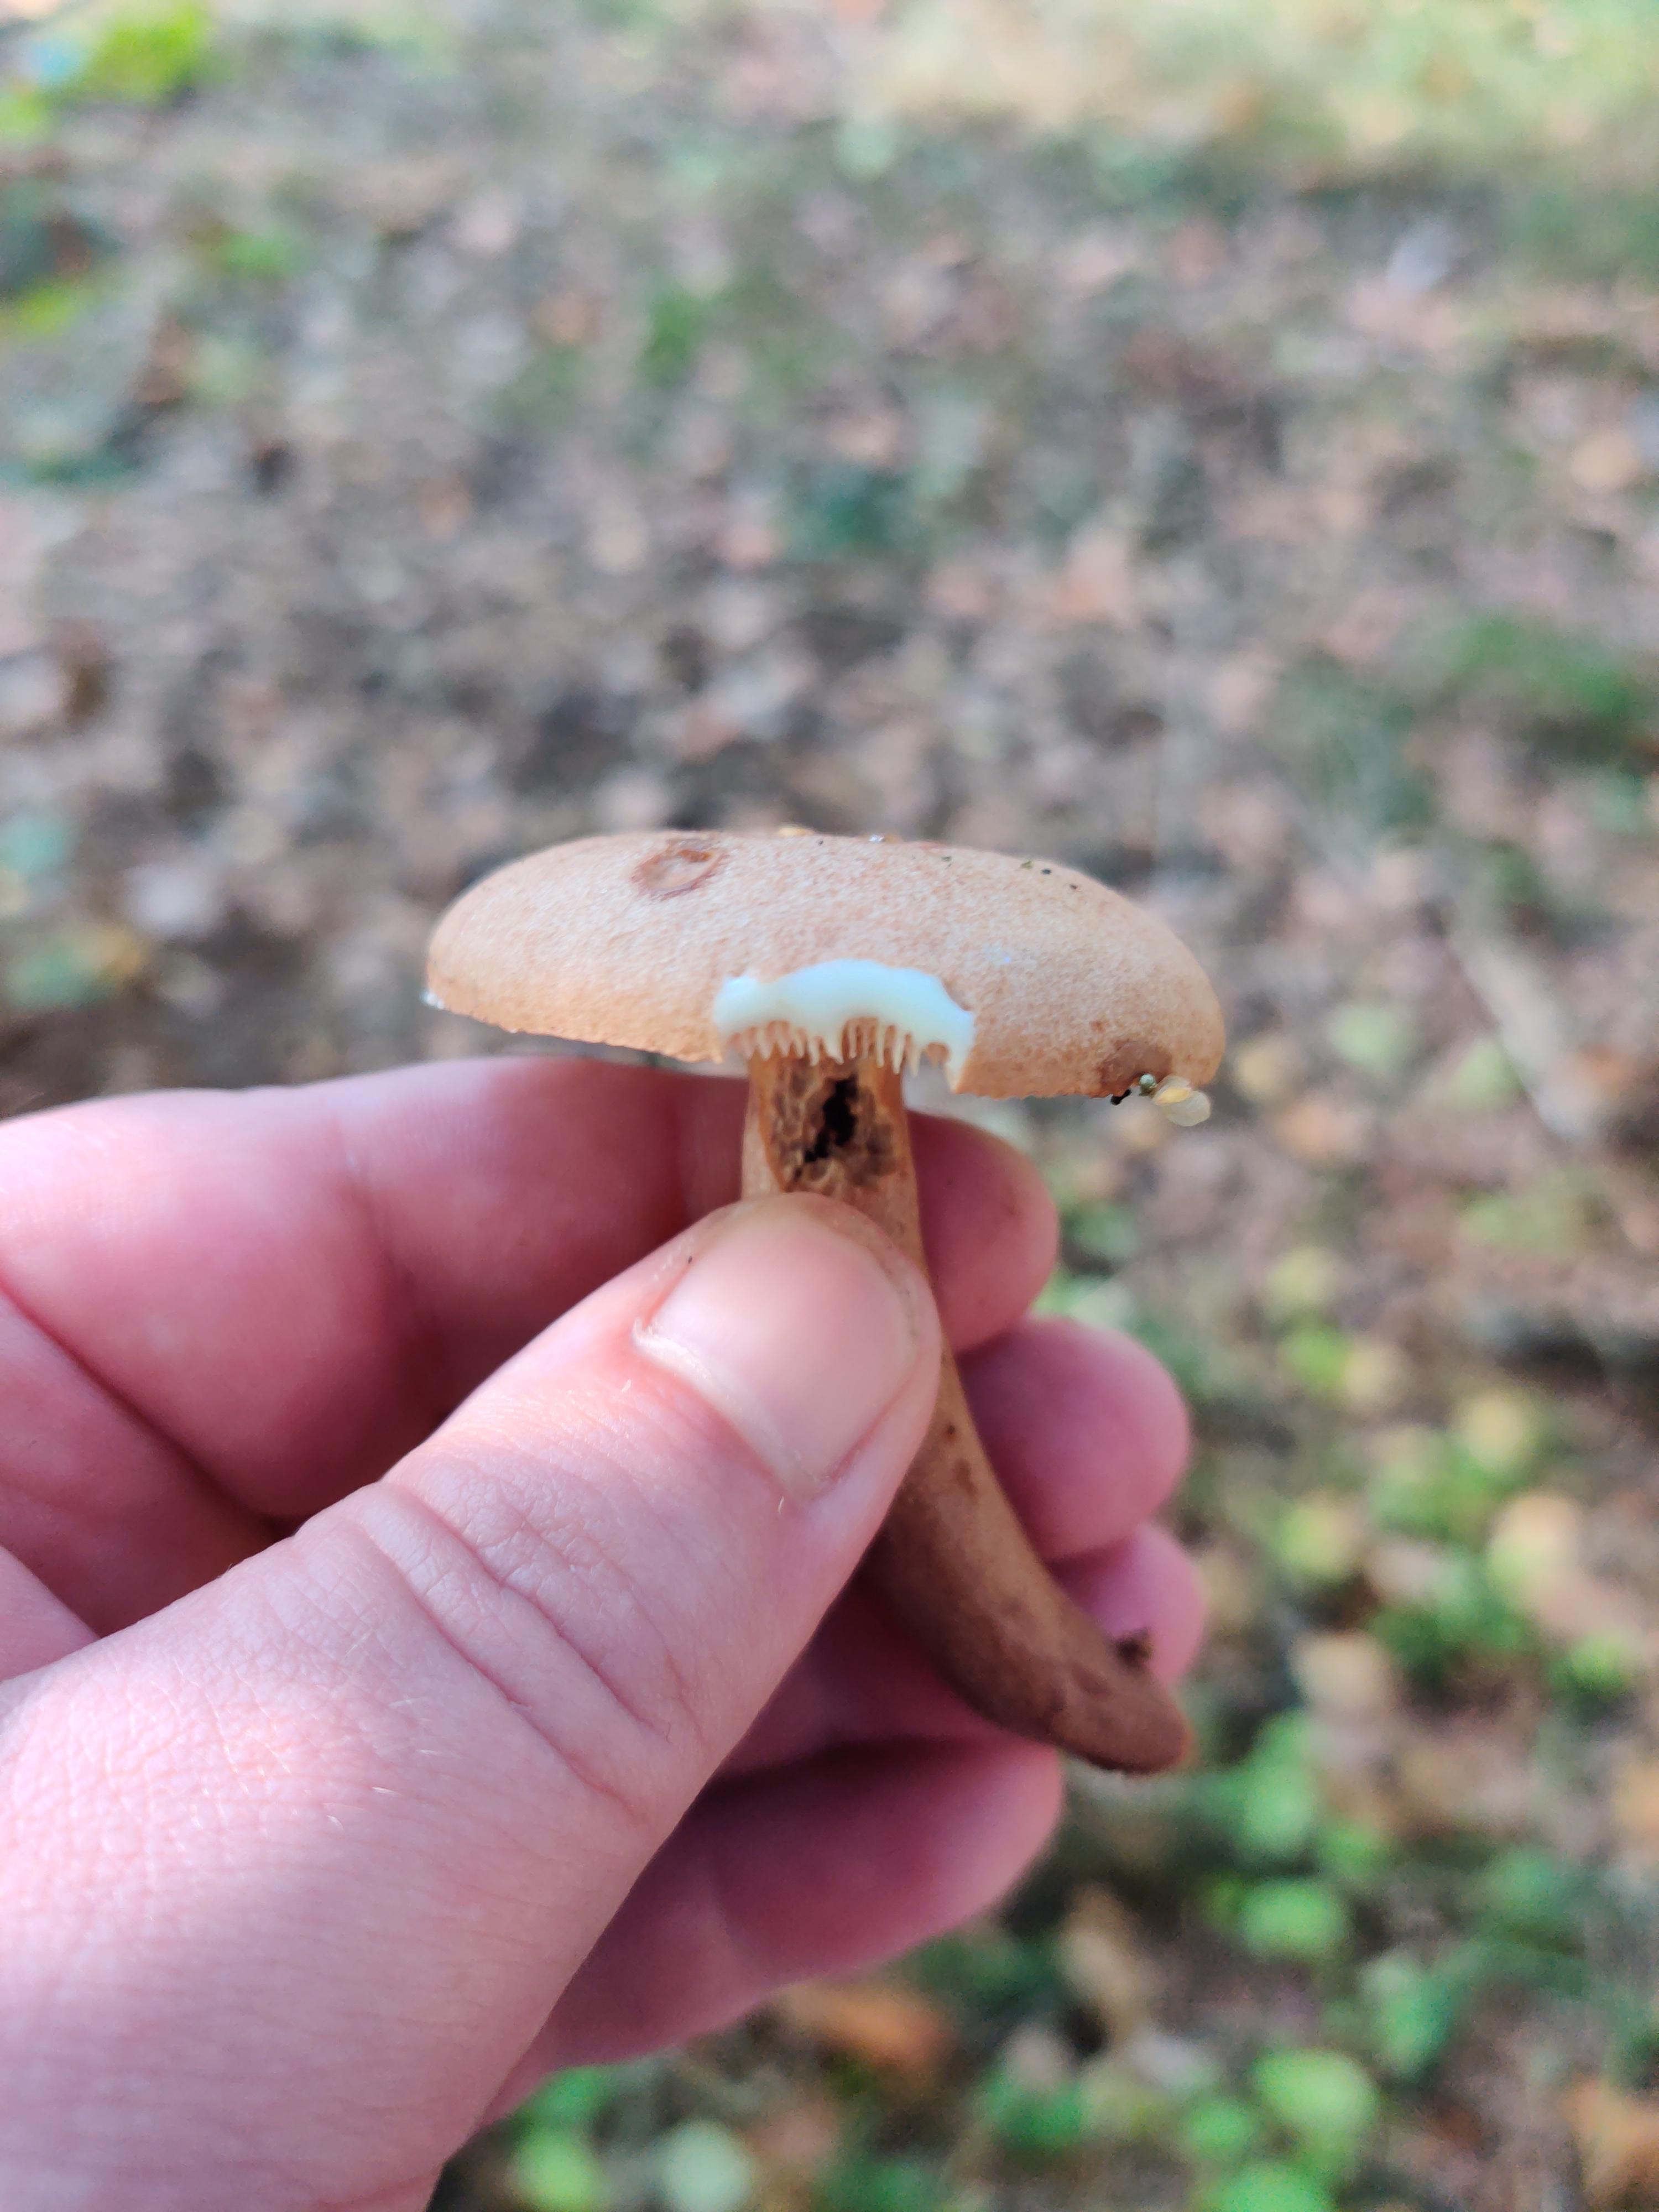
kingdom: Fungi
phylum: Basidiomycota
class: Agaricomycetes
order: Russulales
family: Russulaceae
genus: Lactarius
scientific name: Lactarius
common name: mælkehat
